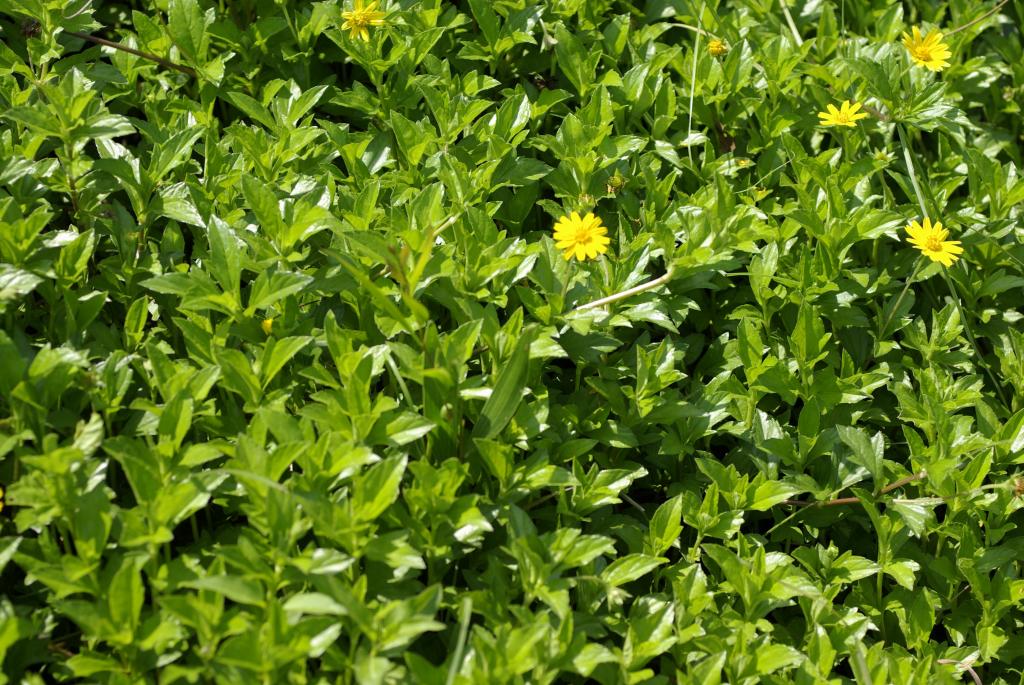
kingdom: Plantae
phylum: Tracheophyta
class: Magnoliopsida
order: Asterales
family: Asteraceae
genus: Sphagneticola
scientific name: Sphagneticola trilobata
